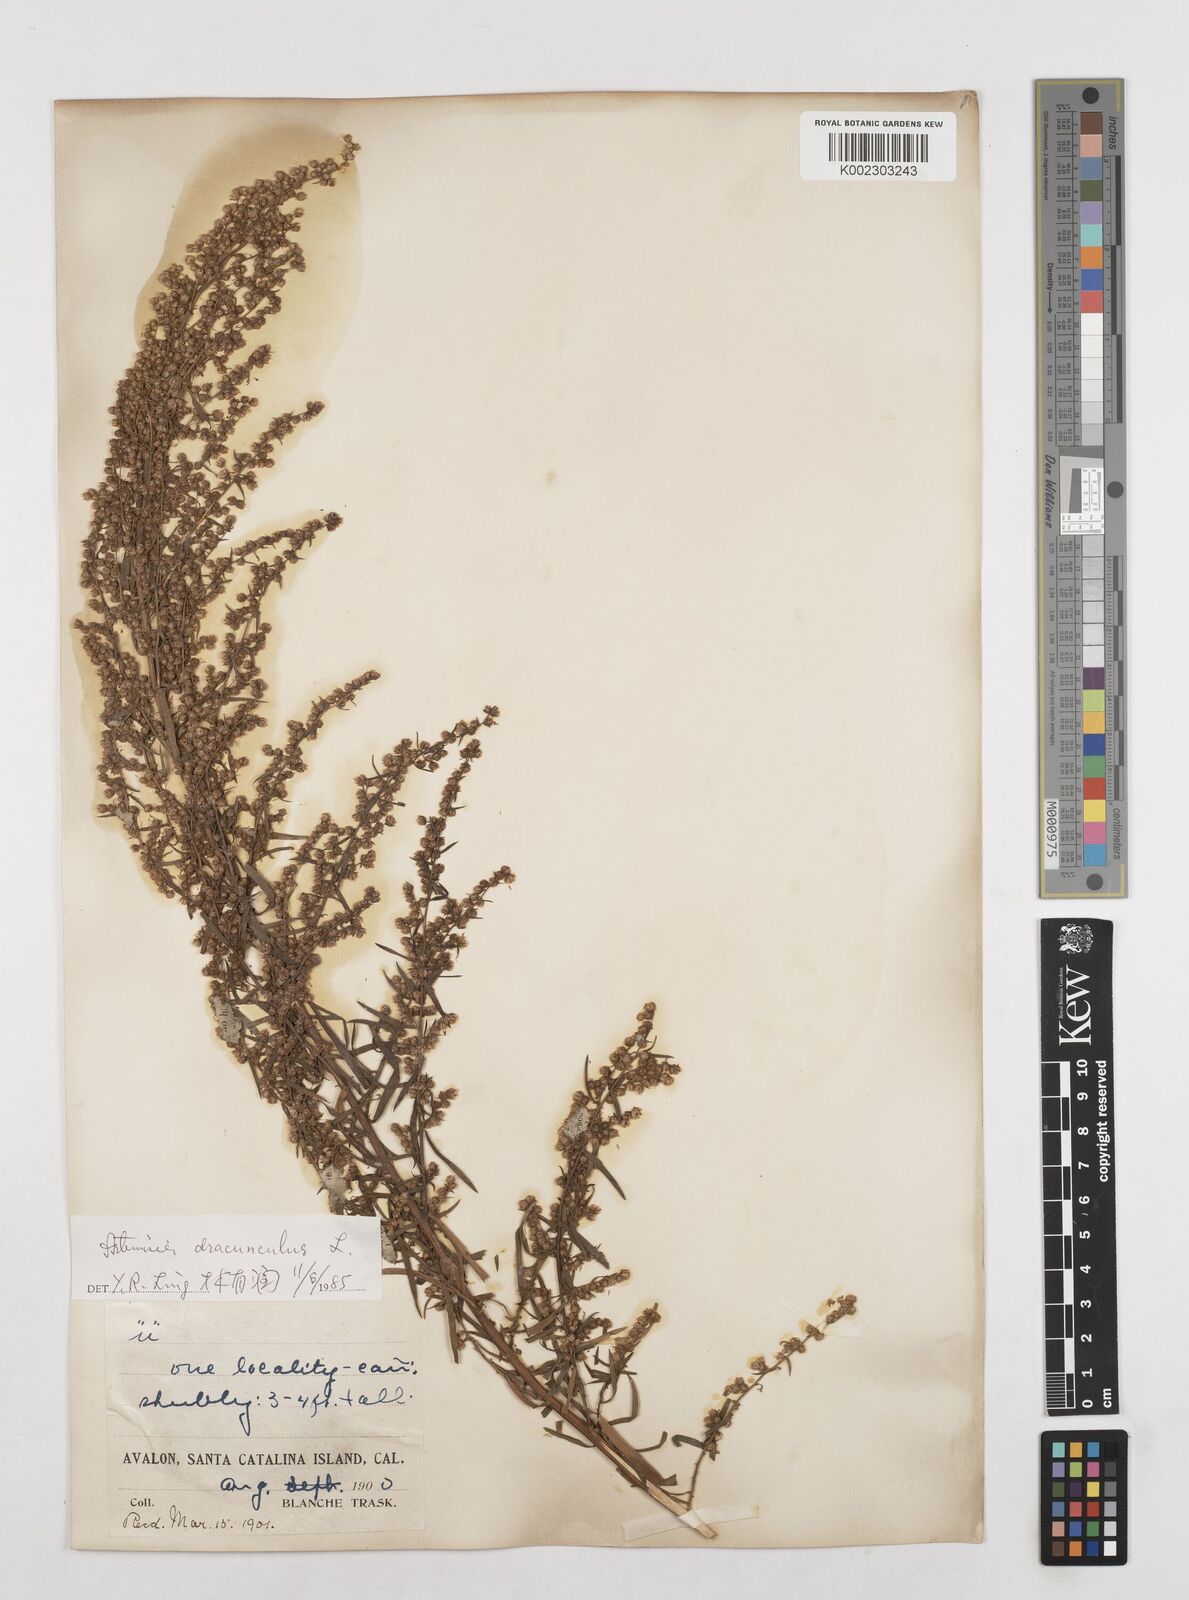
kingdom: Plantae
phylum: Tracheophyta
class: Magnoliopsida
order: Asterales
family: Asteraceae
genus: Artemisia
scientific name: Artemisia dracunculus
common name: Tarragon
